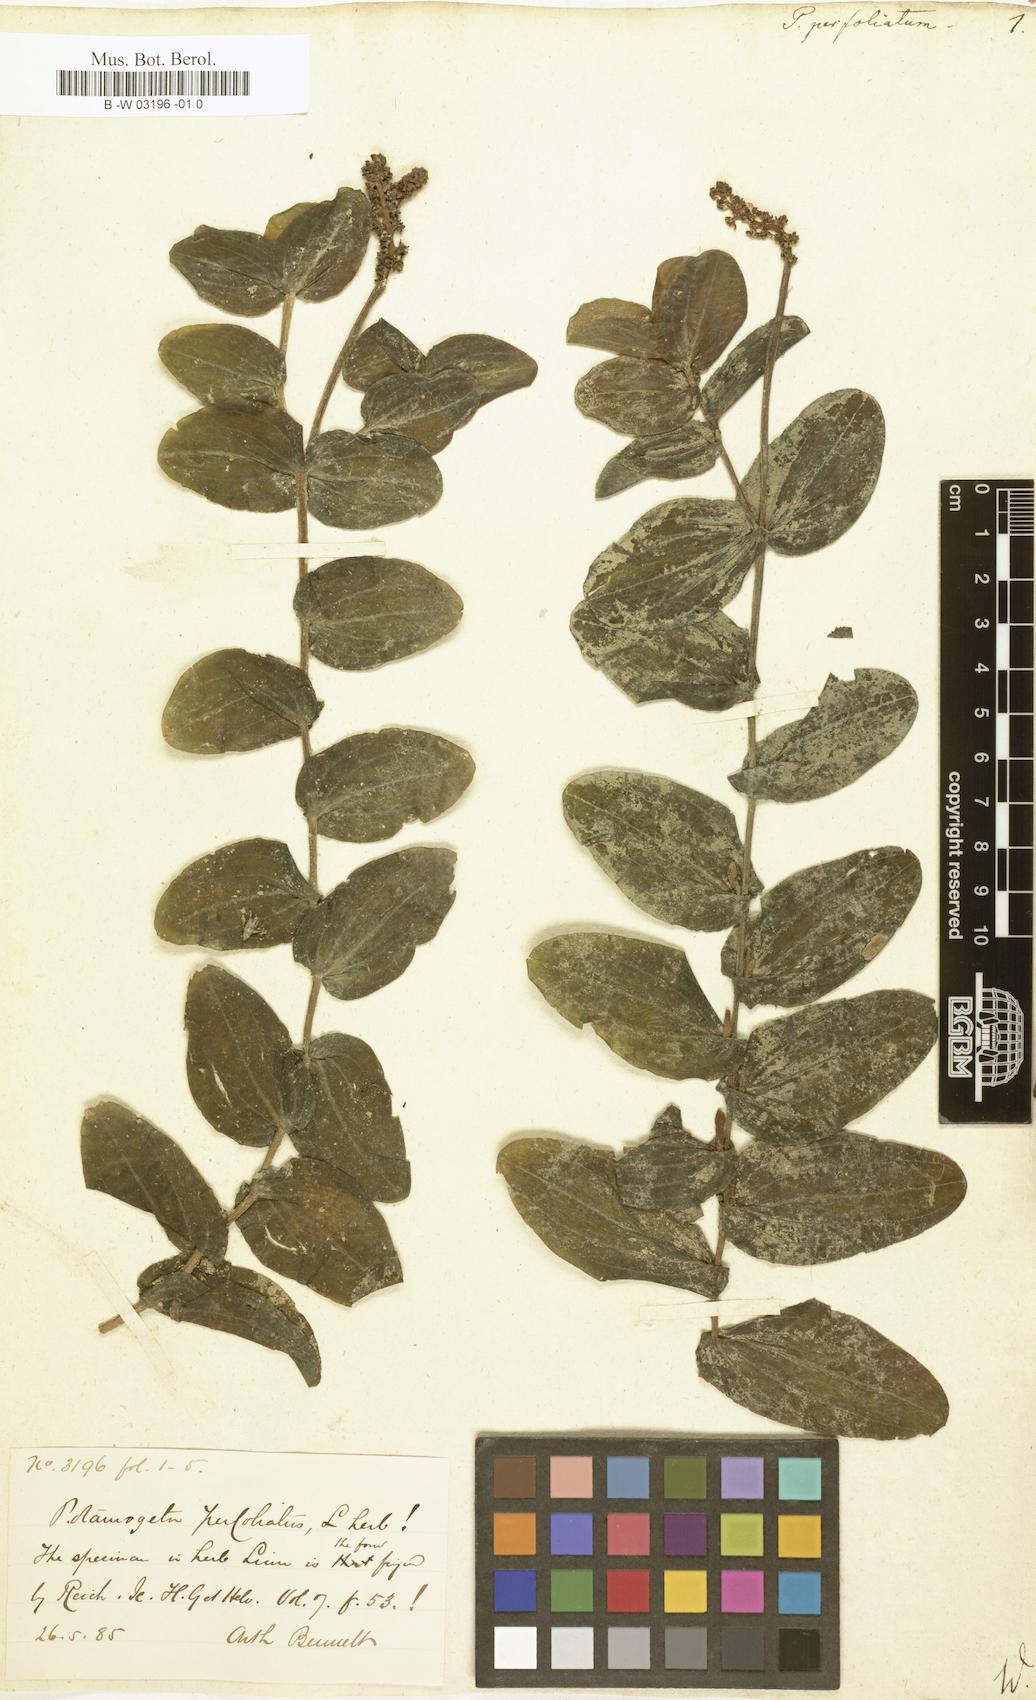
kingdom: Plantae
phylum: Tracheophyta
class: Liliopsida
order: Alismatales
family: Potamogetonaceae
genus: Potamogeton
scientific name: Potamogeton perfoliatus
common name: Perfoliate pondweed
